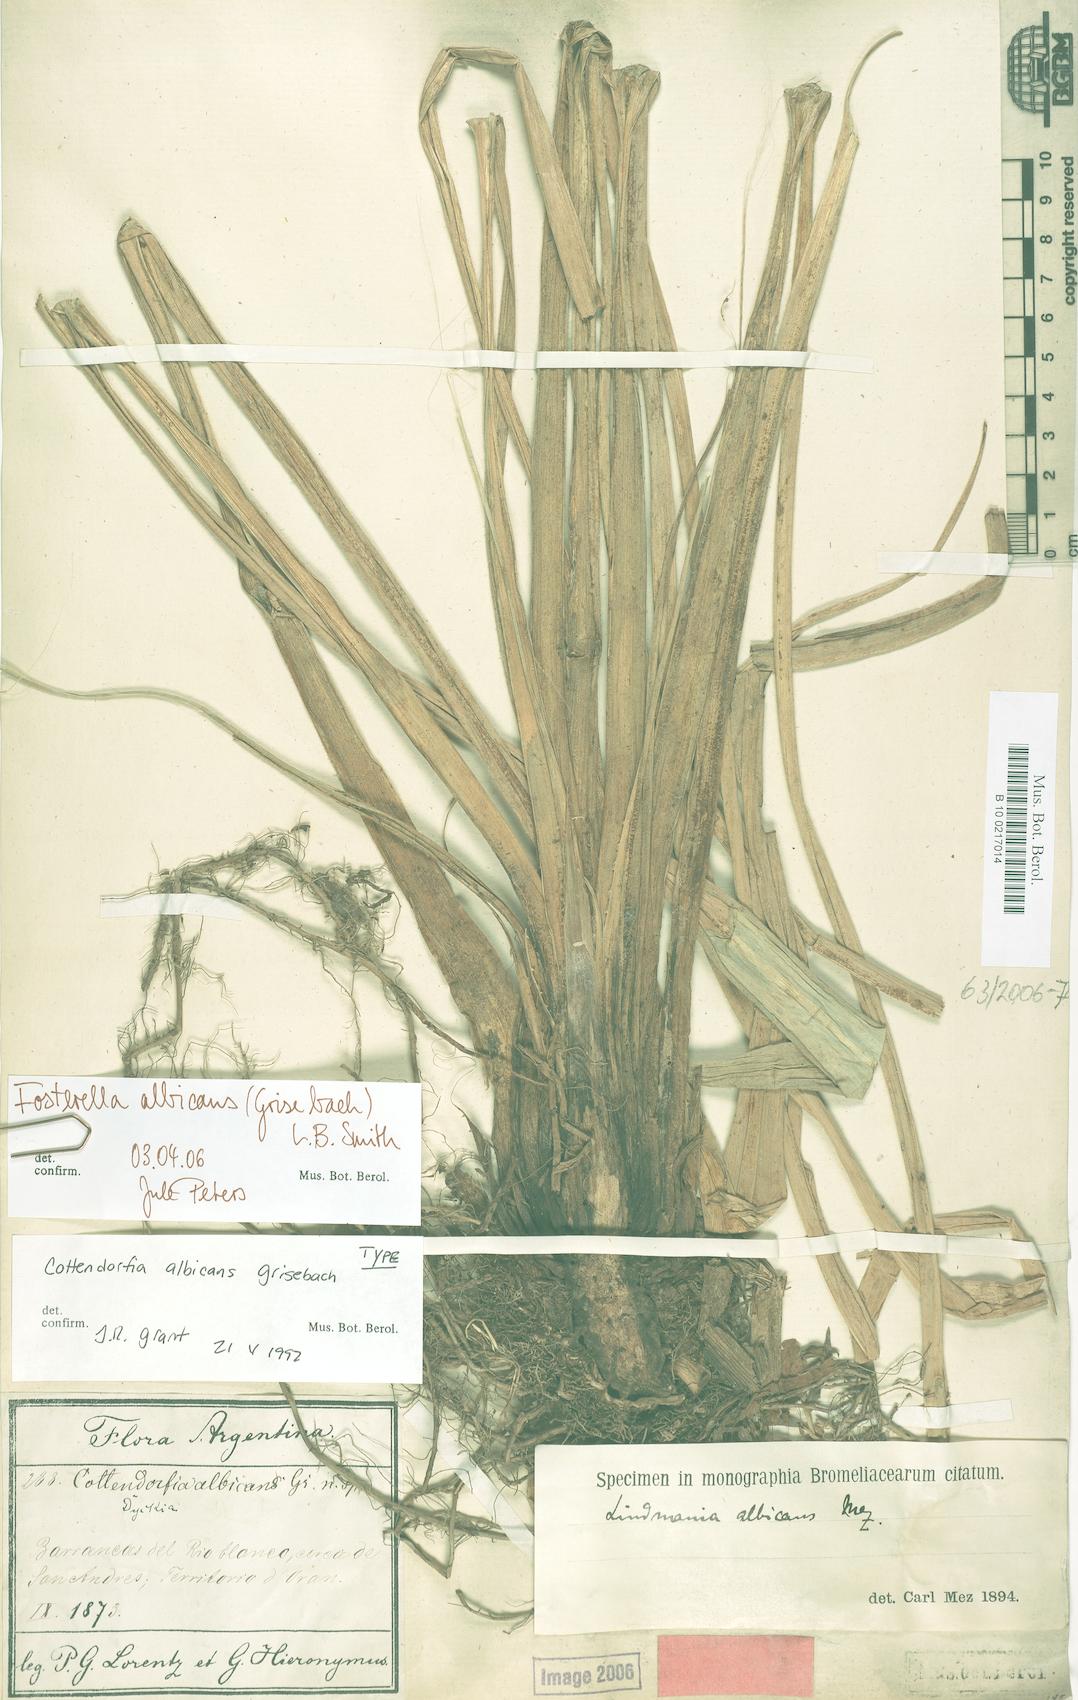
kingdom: Plantae
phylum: Tracheophyta
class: Liliopsida
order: Poales
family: Bromeliaceae
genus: Fosterella
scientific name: Fosterella albicans
